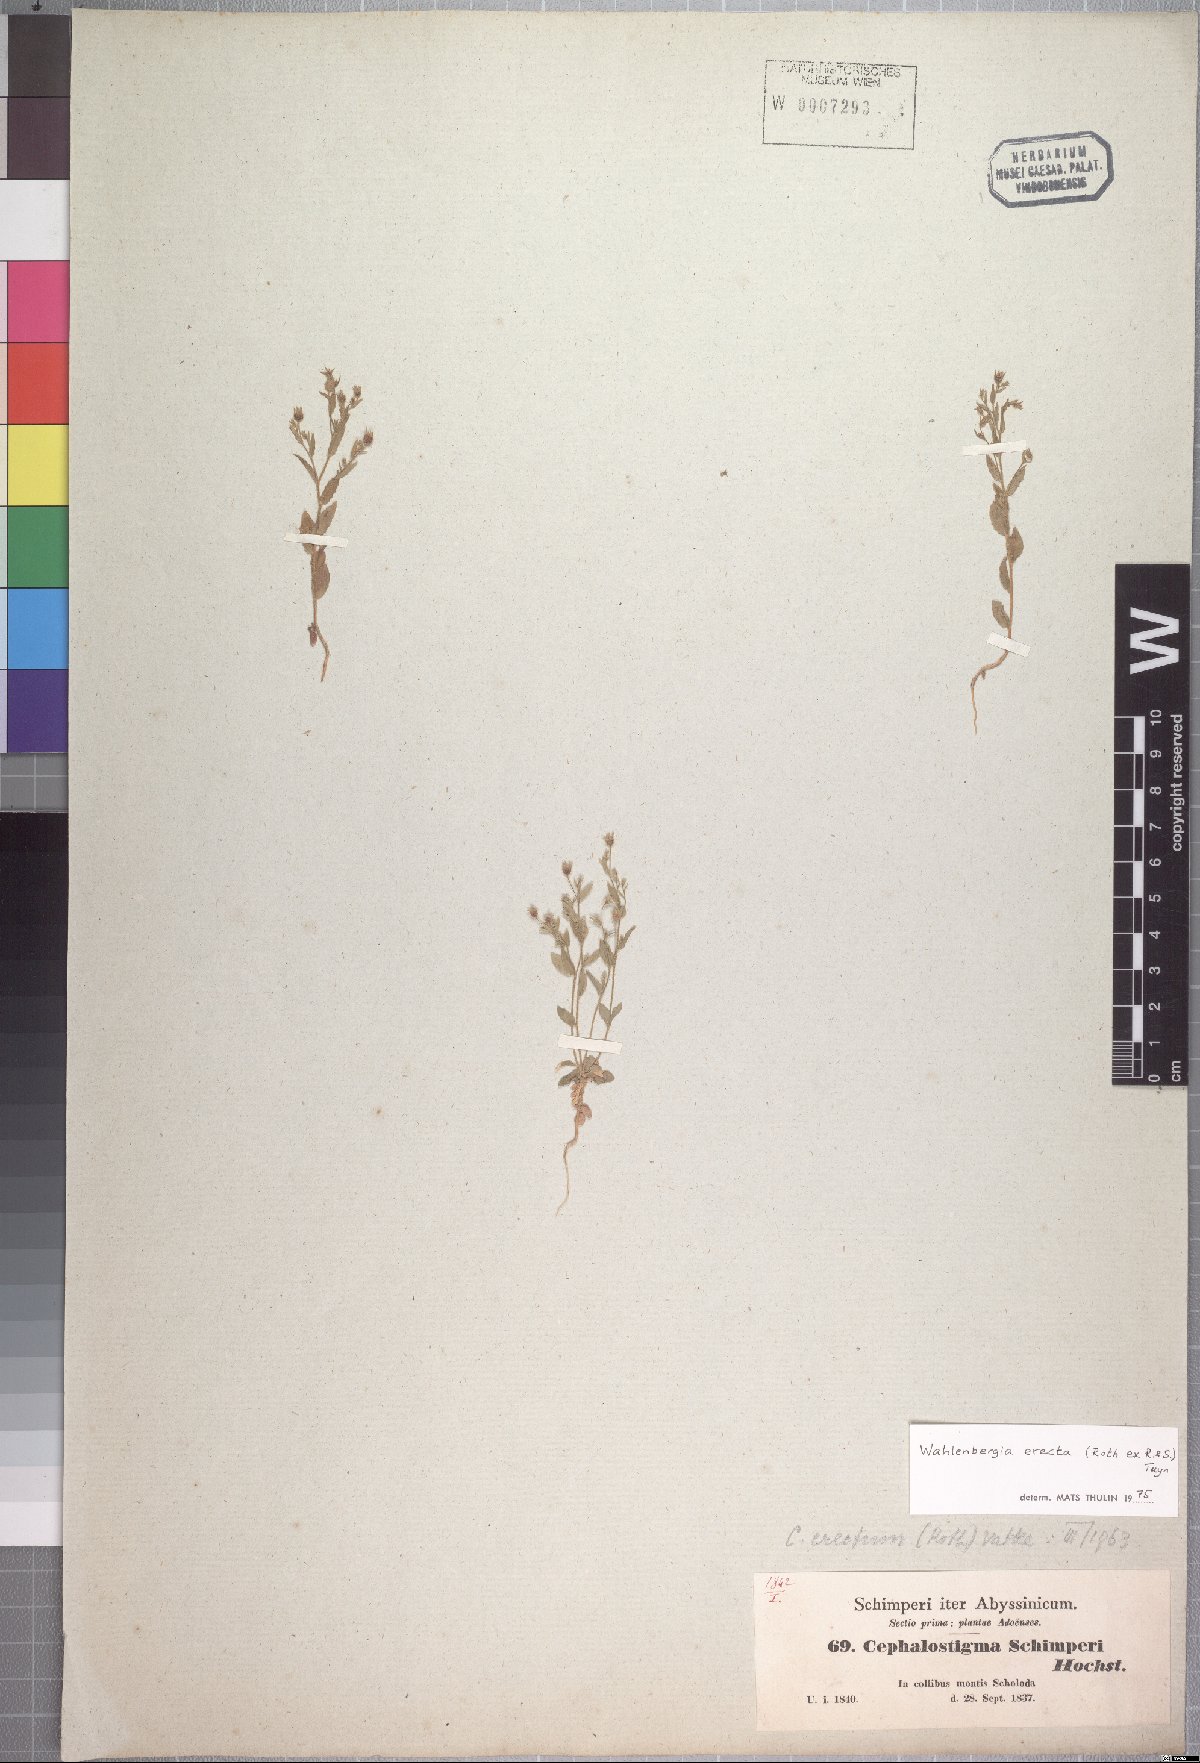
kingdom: Plantae
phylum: Tracheophyta
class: Magnoliopsida
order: Asterales
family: Campanulaceae
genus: Wahlenbergia
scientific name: Wahlenbergia erecta
